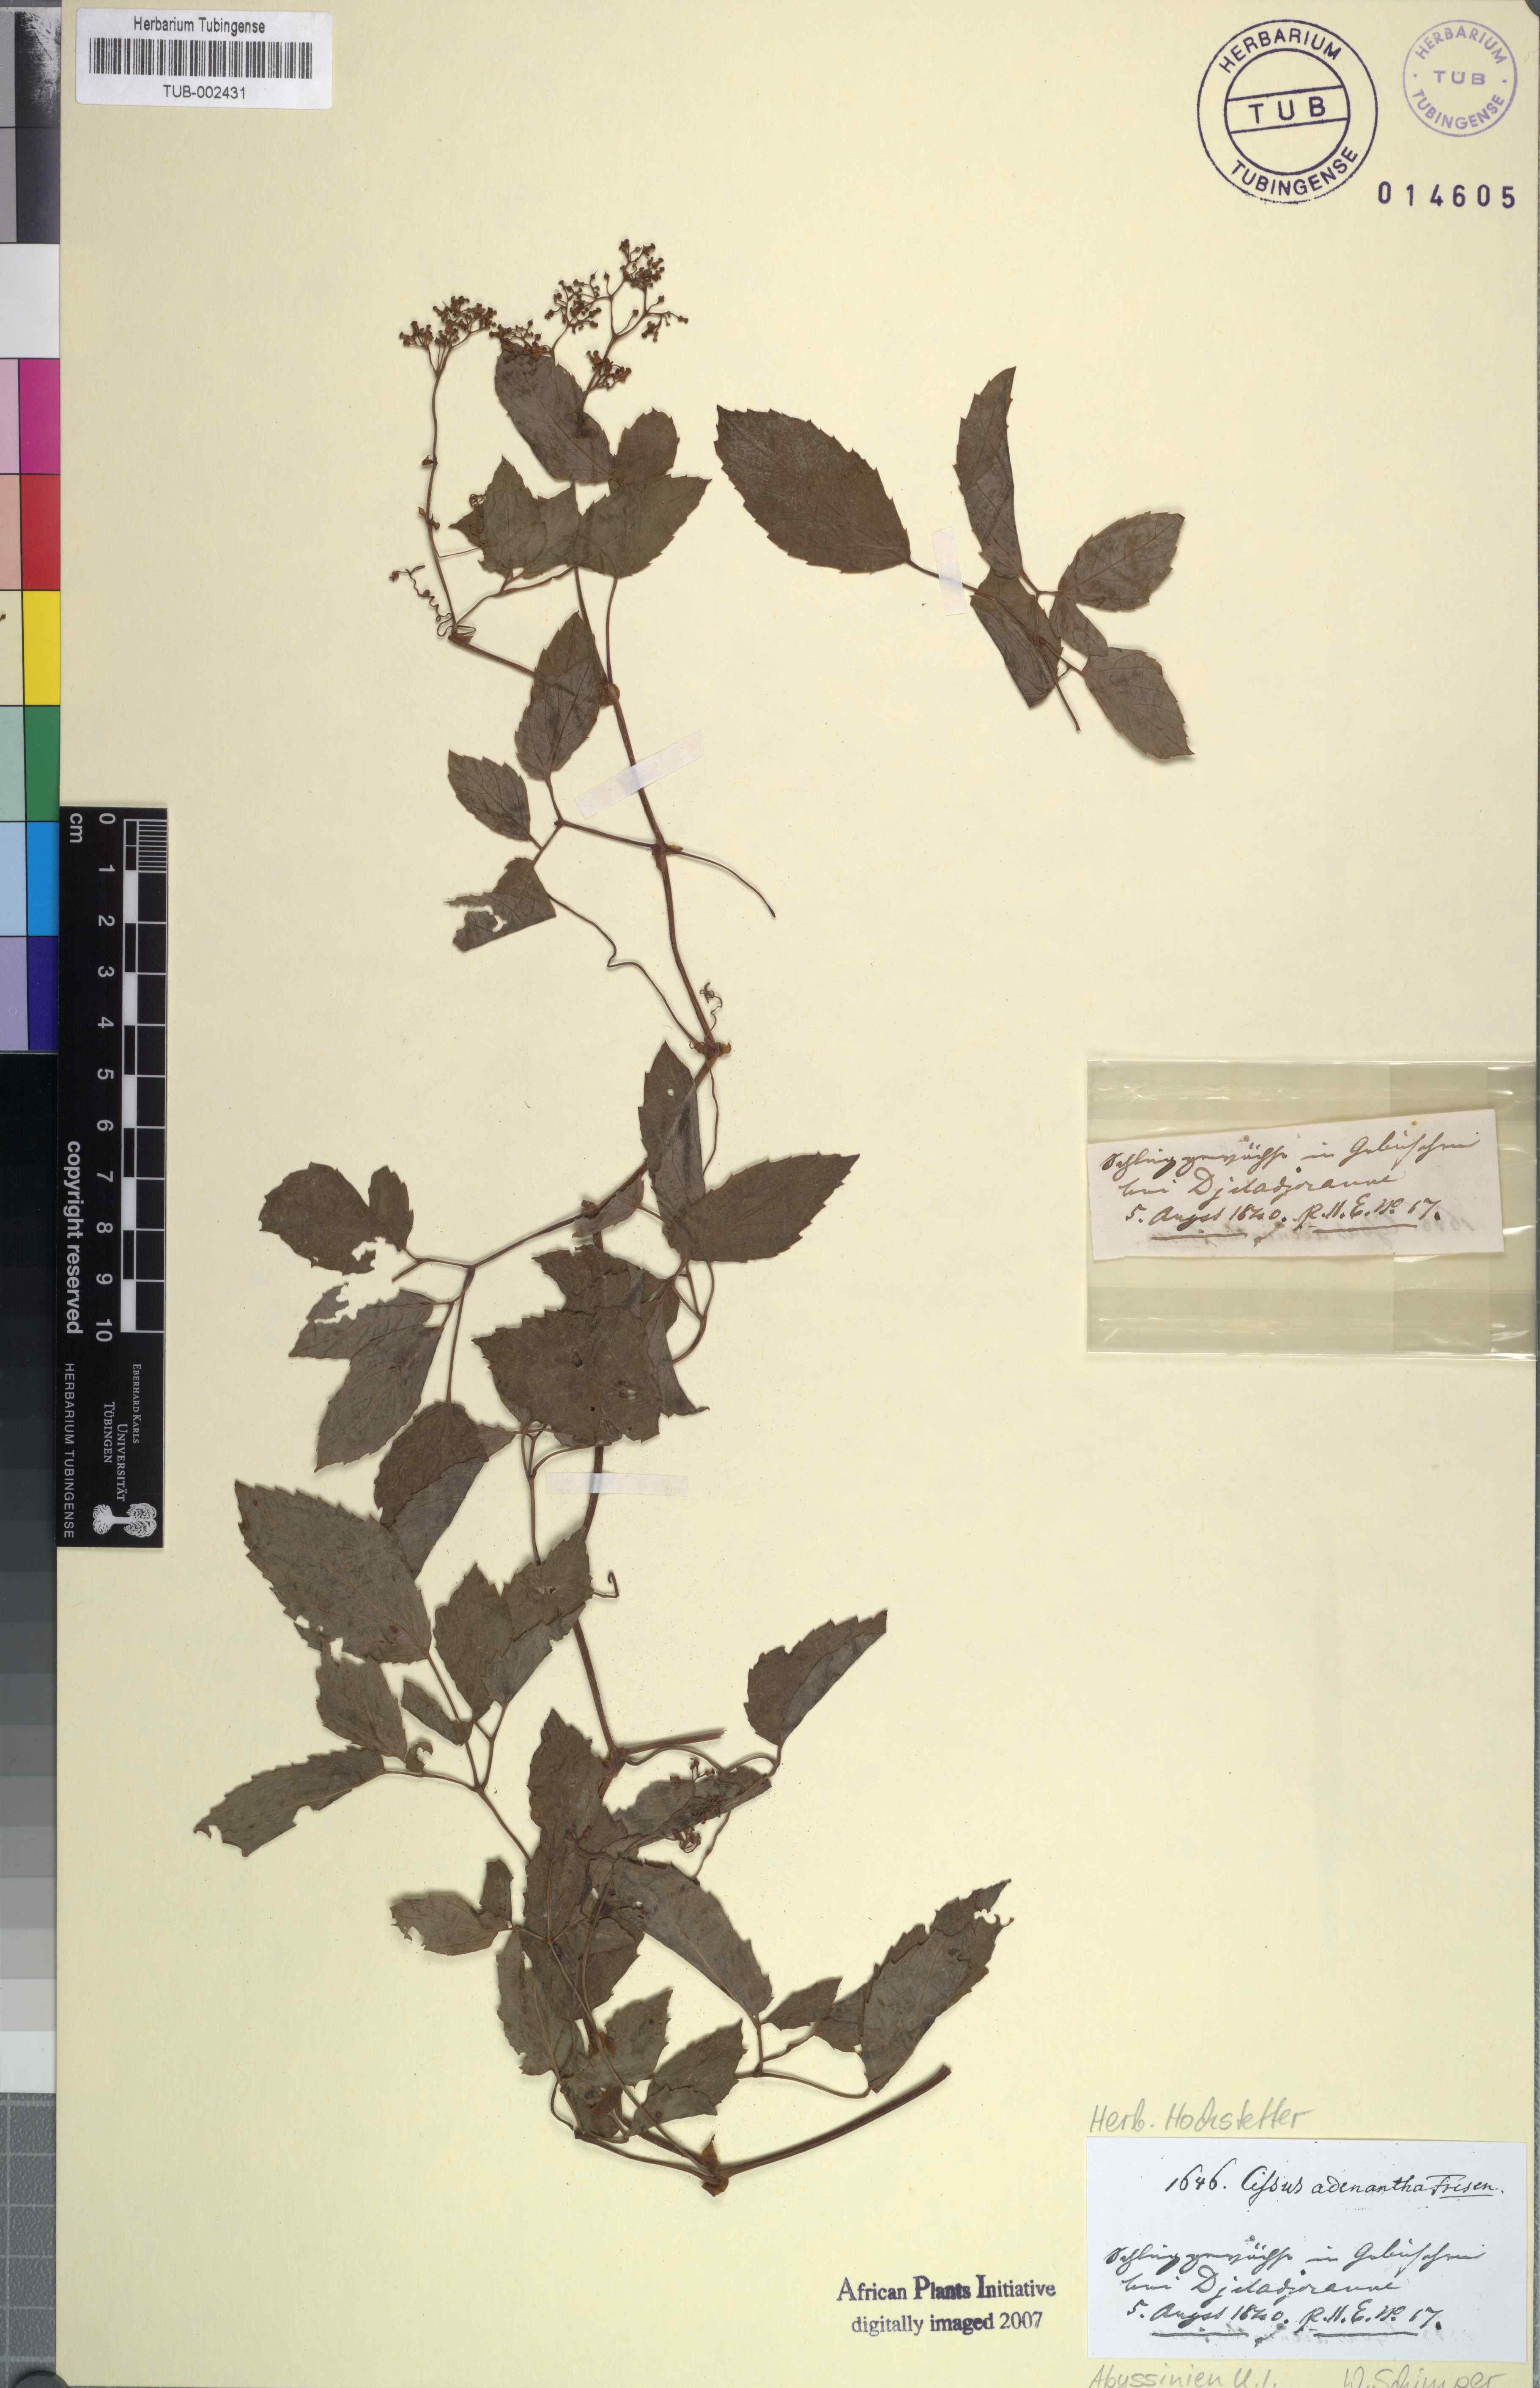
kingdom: Plantae
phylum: Tracheophyta
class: Magnoliopsida
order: Vitales
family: Vitaceae
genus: Cyphostemma
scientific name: Cyphostemma adenanthum
